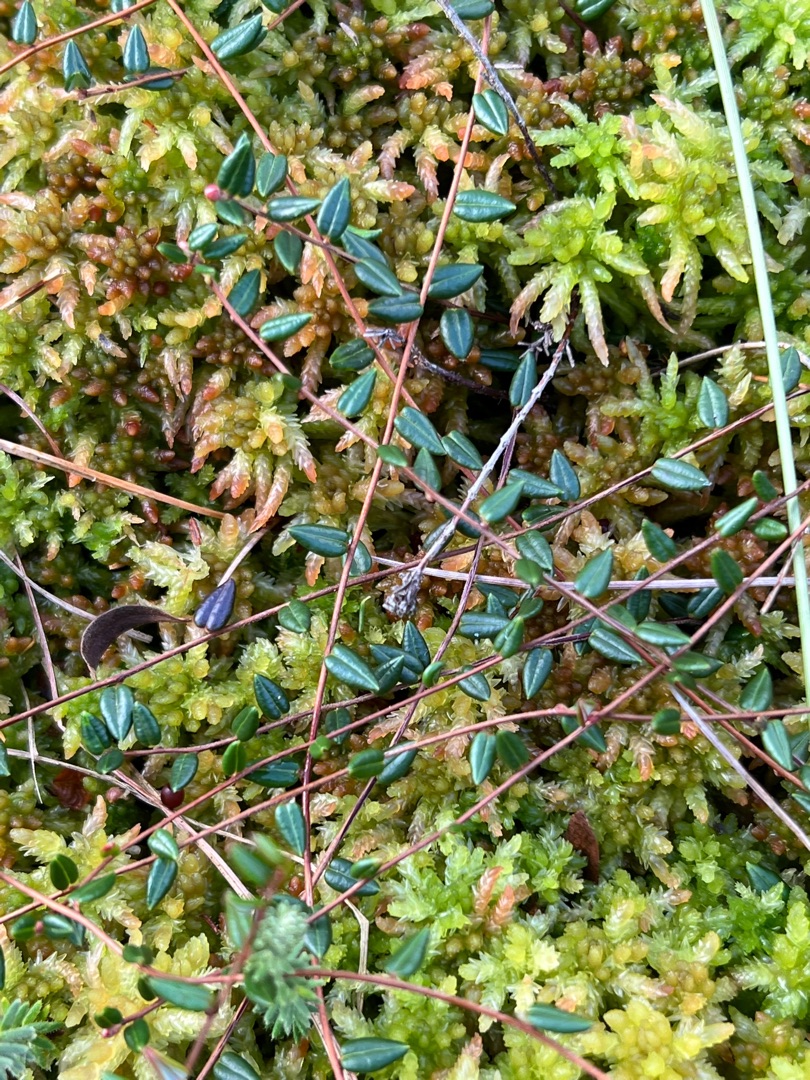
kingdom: Plantae
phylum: Tracheophyta
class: Magnoliopsida
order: Ericales
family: Ericaceae
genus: Vaccinium
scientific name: Vaccinium oxycoccos
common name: Tranebær
